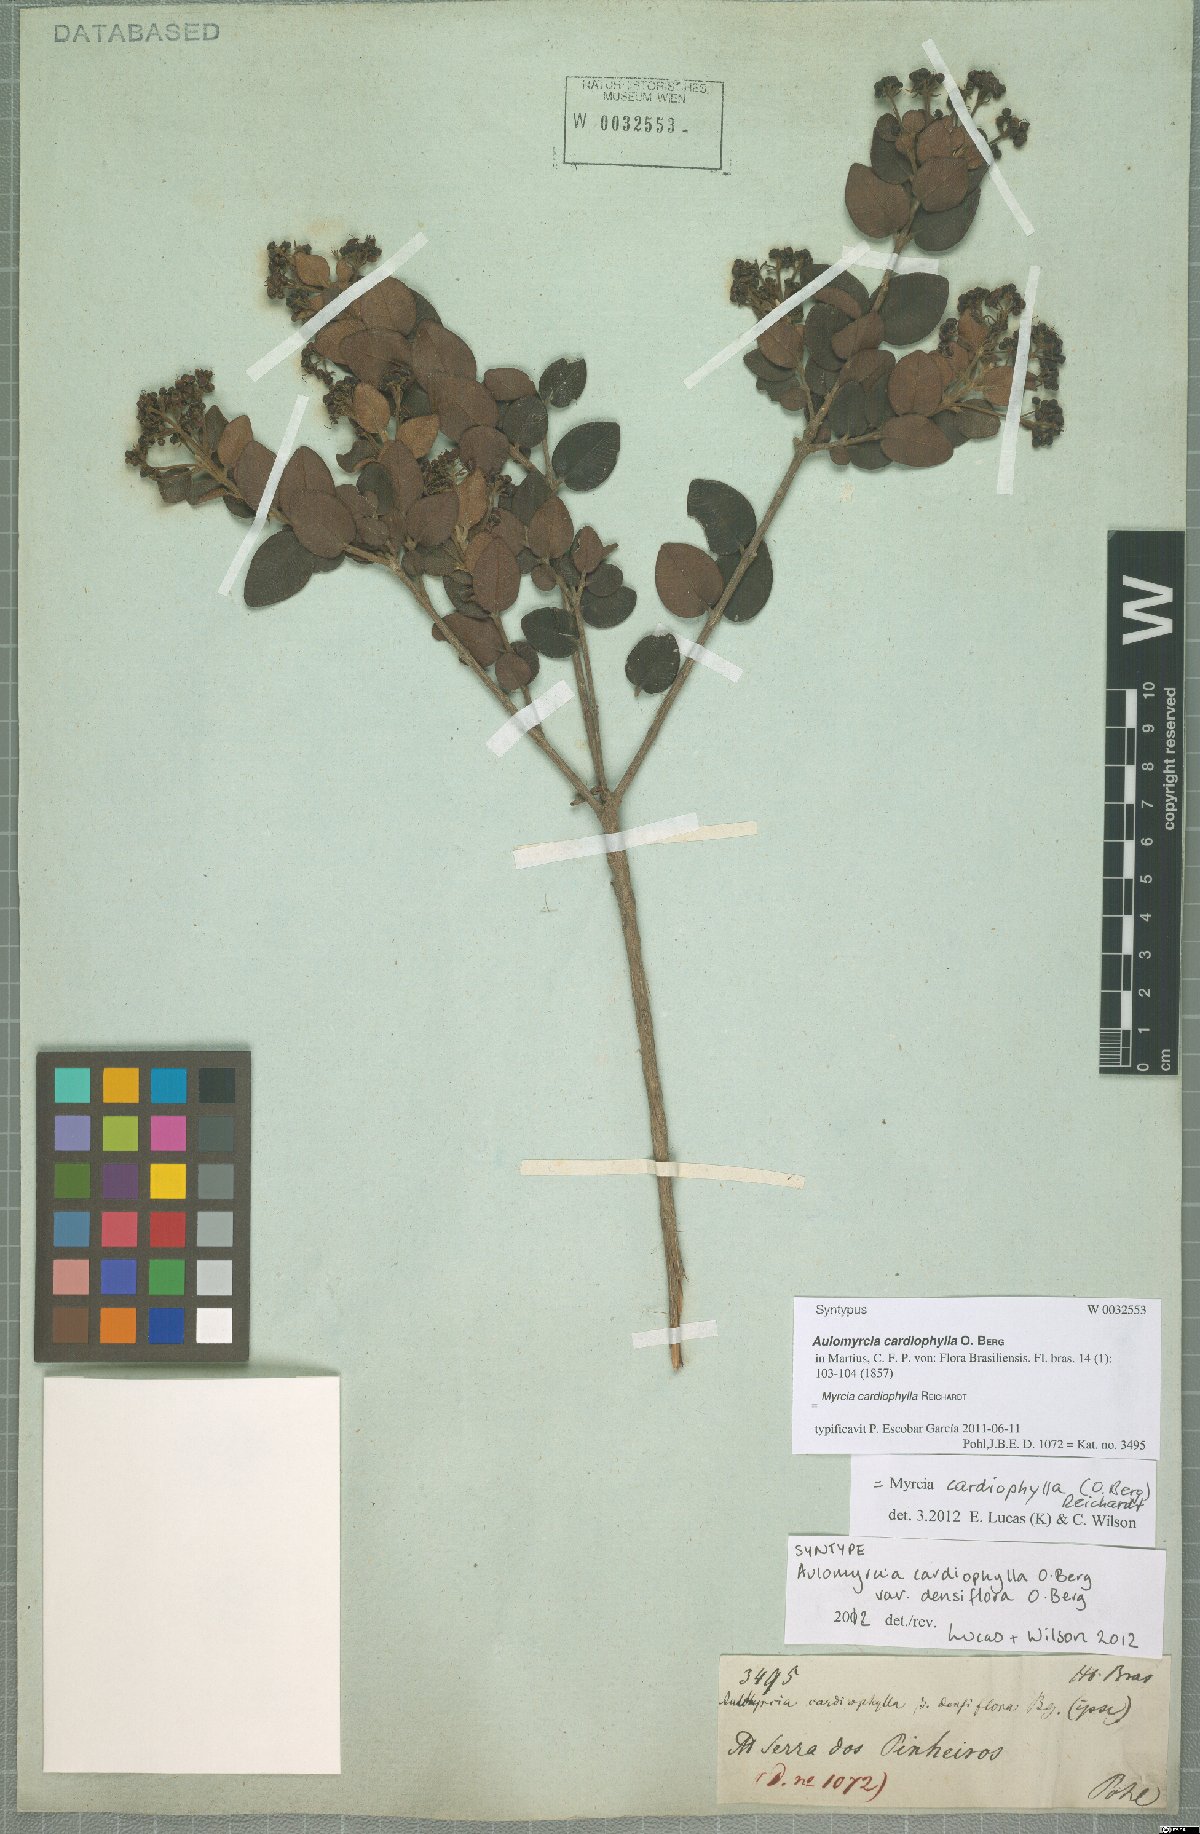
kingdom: Plantae
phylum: Tracheophyta
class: Magnoliopsida
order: Myrtales
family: Myrtaceae
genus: Myrcia
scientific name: Myrcia altera
